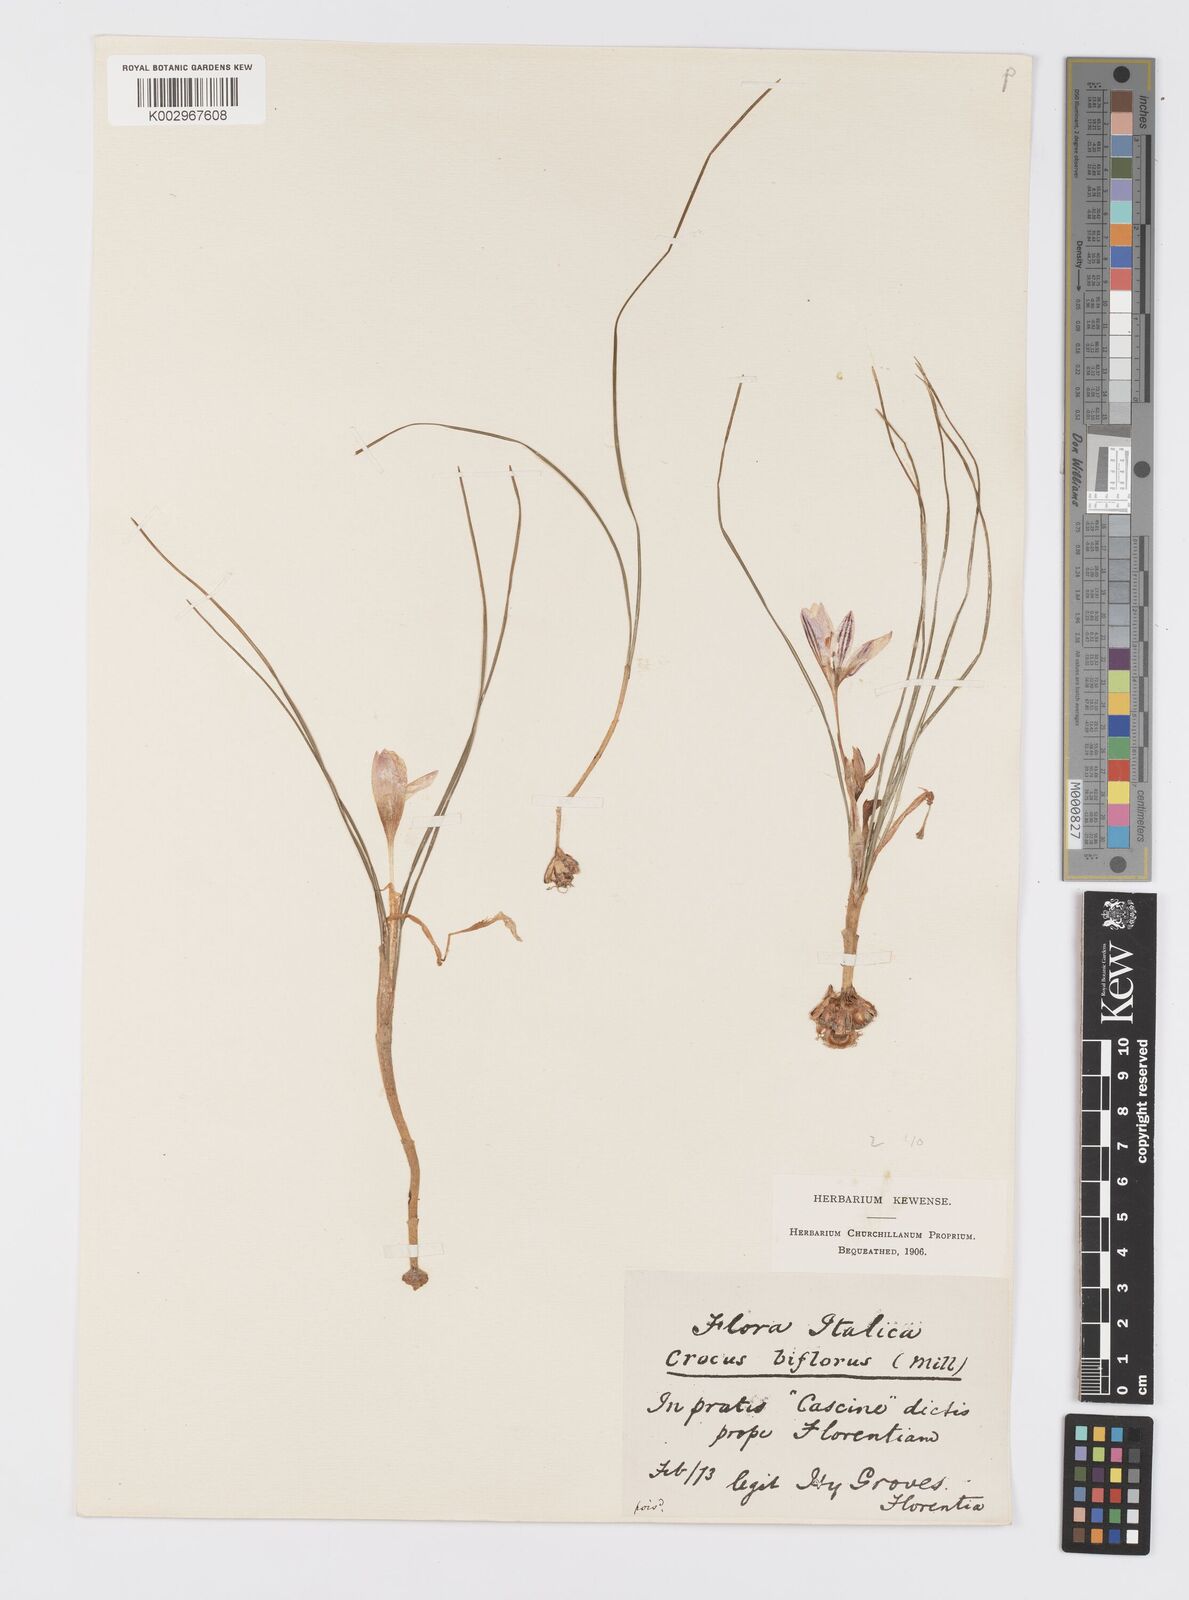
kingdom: Plantae
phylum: Tracheophyta
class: Liliopsida
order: Asparagales
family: Iridaceae
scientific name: Iridaceae
